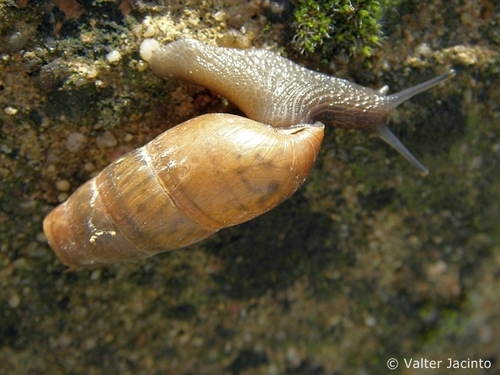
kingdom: Animalia
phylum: Mollusca
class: Gastropoda
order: Stylommatophora
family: Achatinidae
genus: Rumina
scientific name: Rumina decollata
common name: Decollate snail
